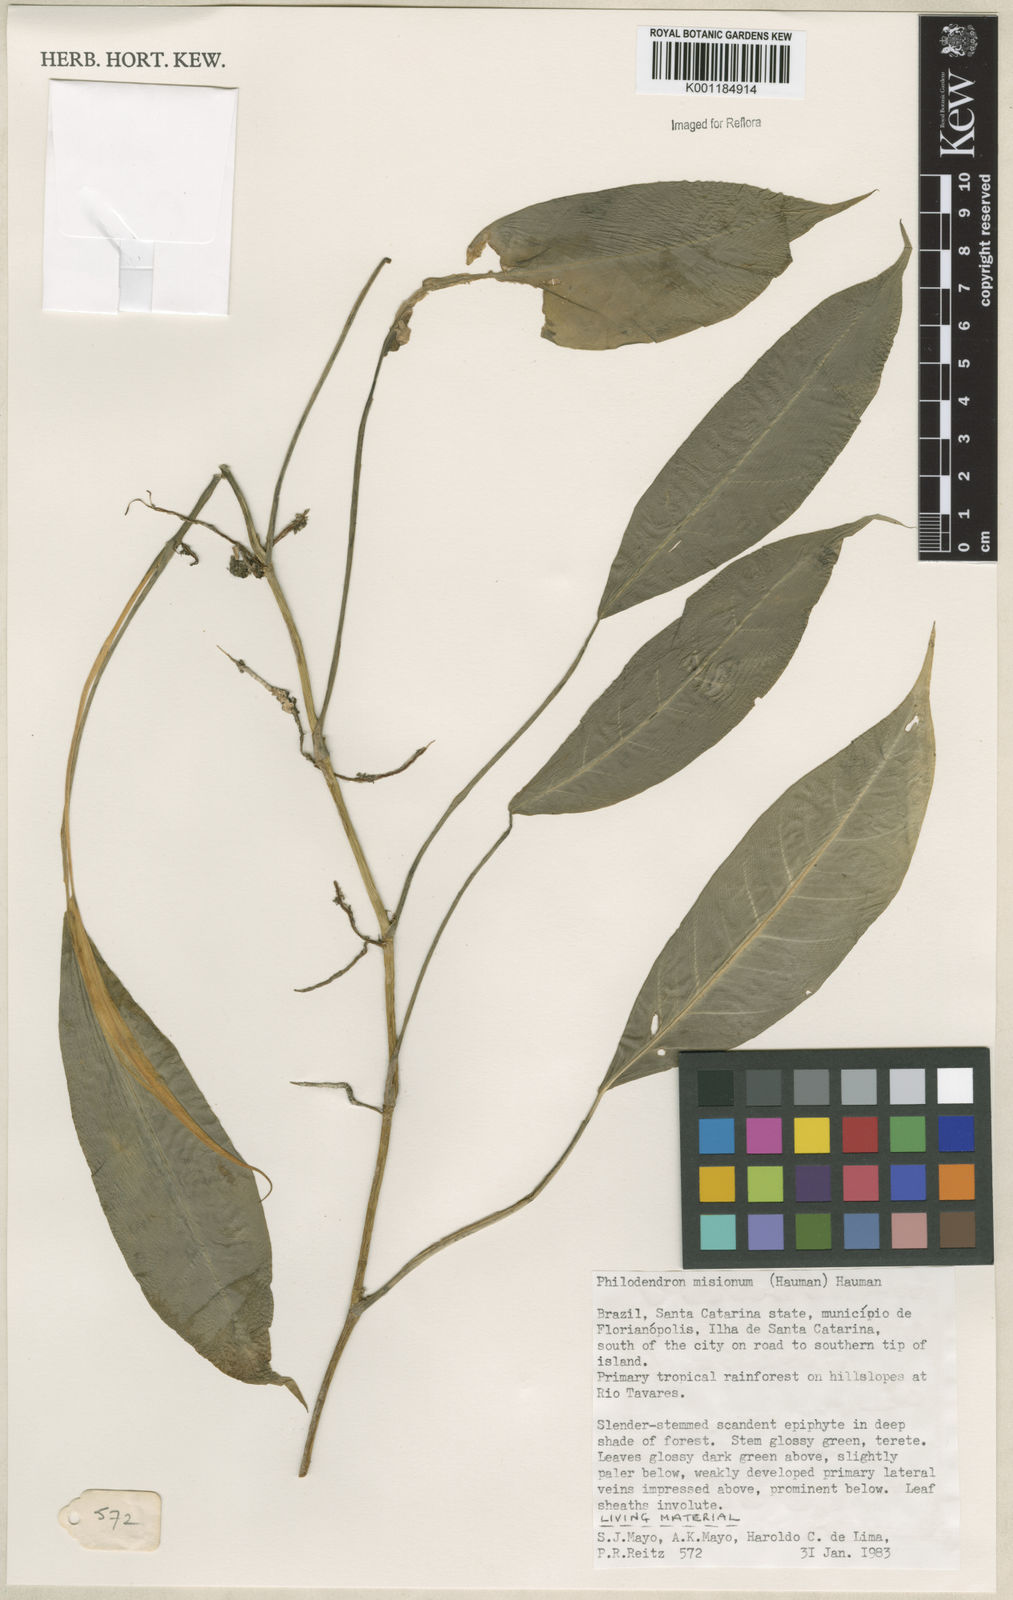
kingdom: Plantae
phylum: Tracheophyta
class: Liliopsida
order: Alismatales
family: Araceae
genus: Philodendron
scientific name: Philodendron missionum
